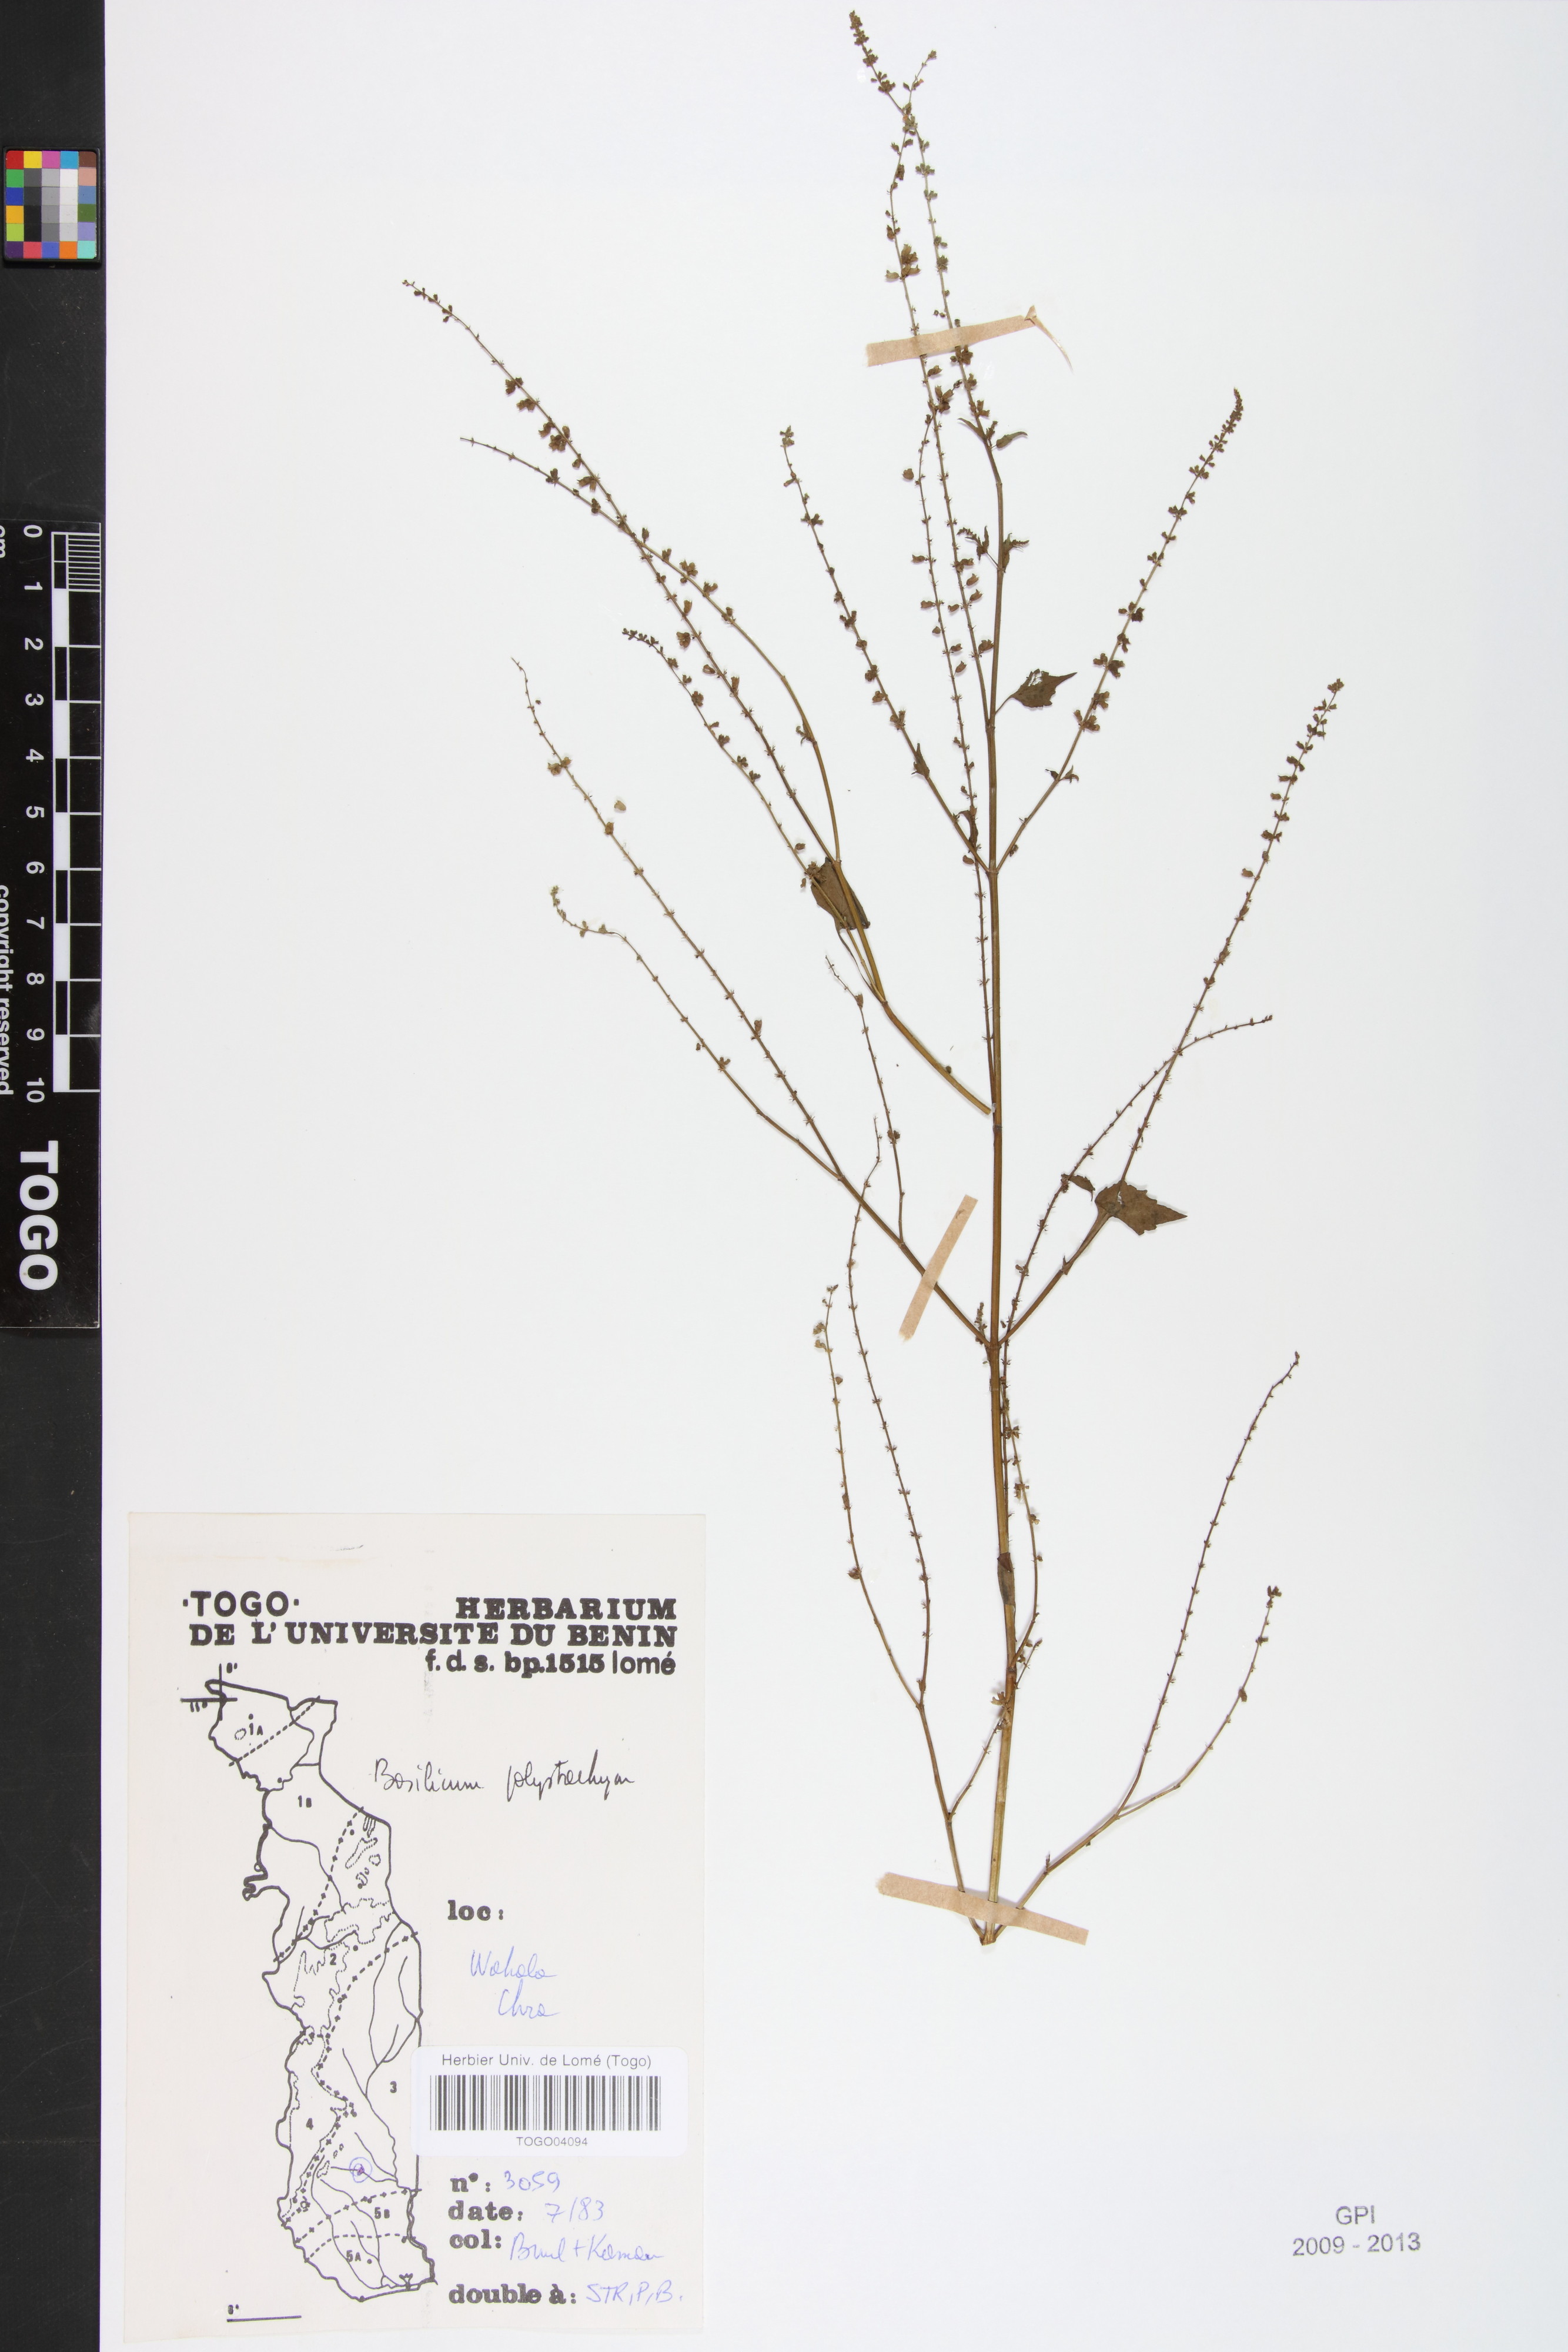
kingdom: Plantae
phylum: Tracheophyta
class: Magnoliopsida
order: Lamiales
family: Lamiaceae
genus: Basilicum
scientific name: Basilicum polystachyon
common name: Musk-basil
